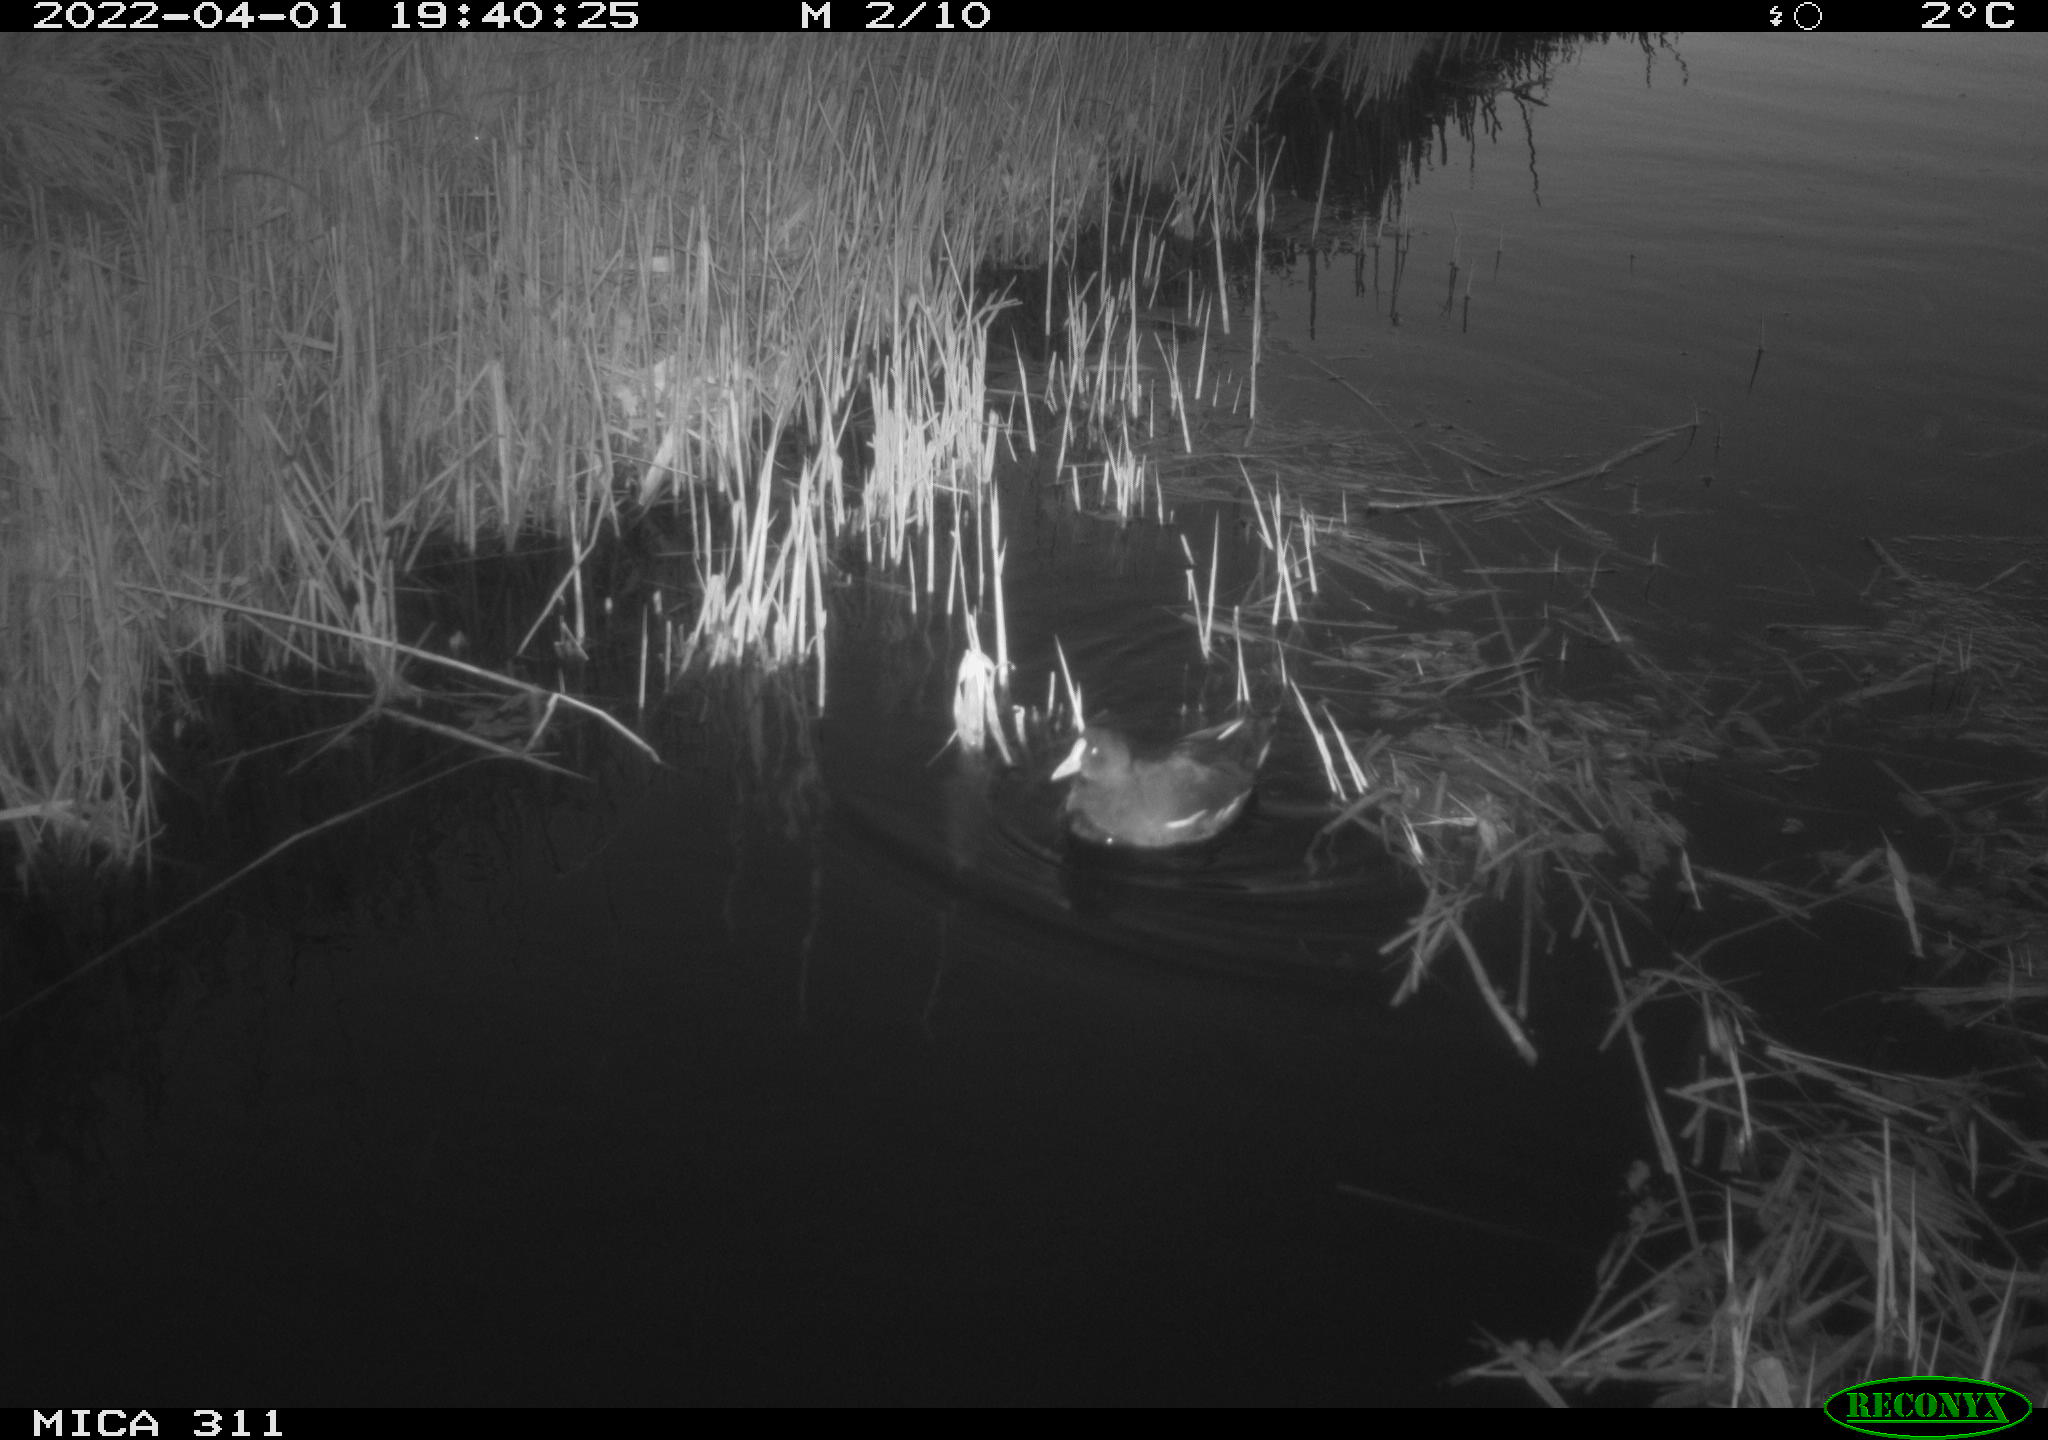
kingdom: Animalia
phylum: Chordata
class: Aves
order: Gruiformes
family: Rallidae
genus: Gallinula
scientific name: Gallinula chloropus
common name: Common moorhen
